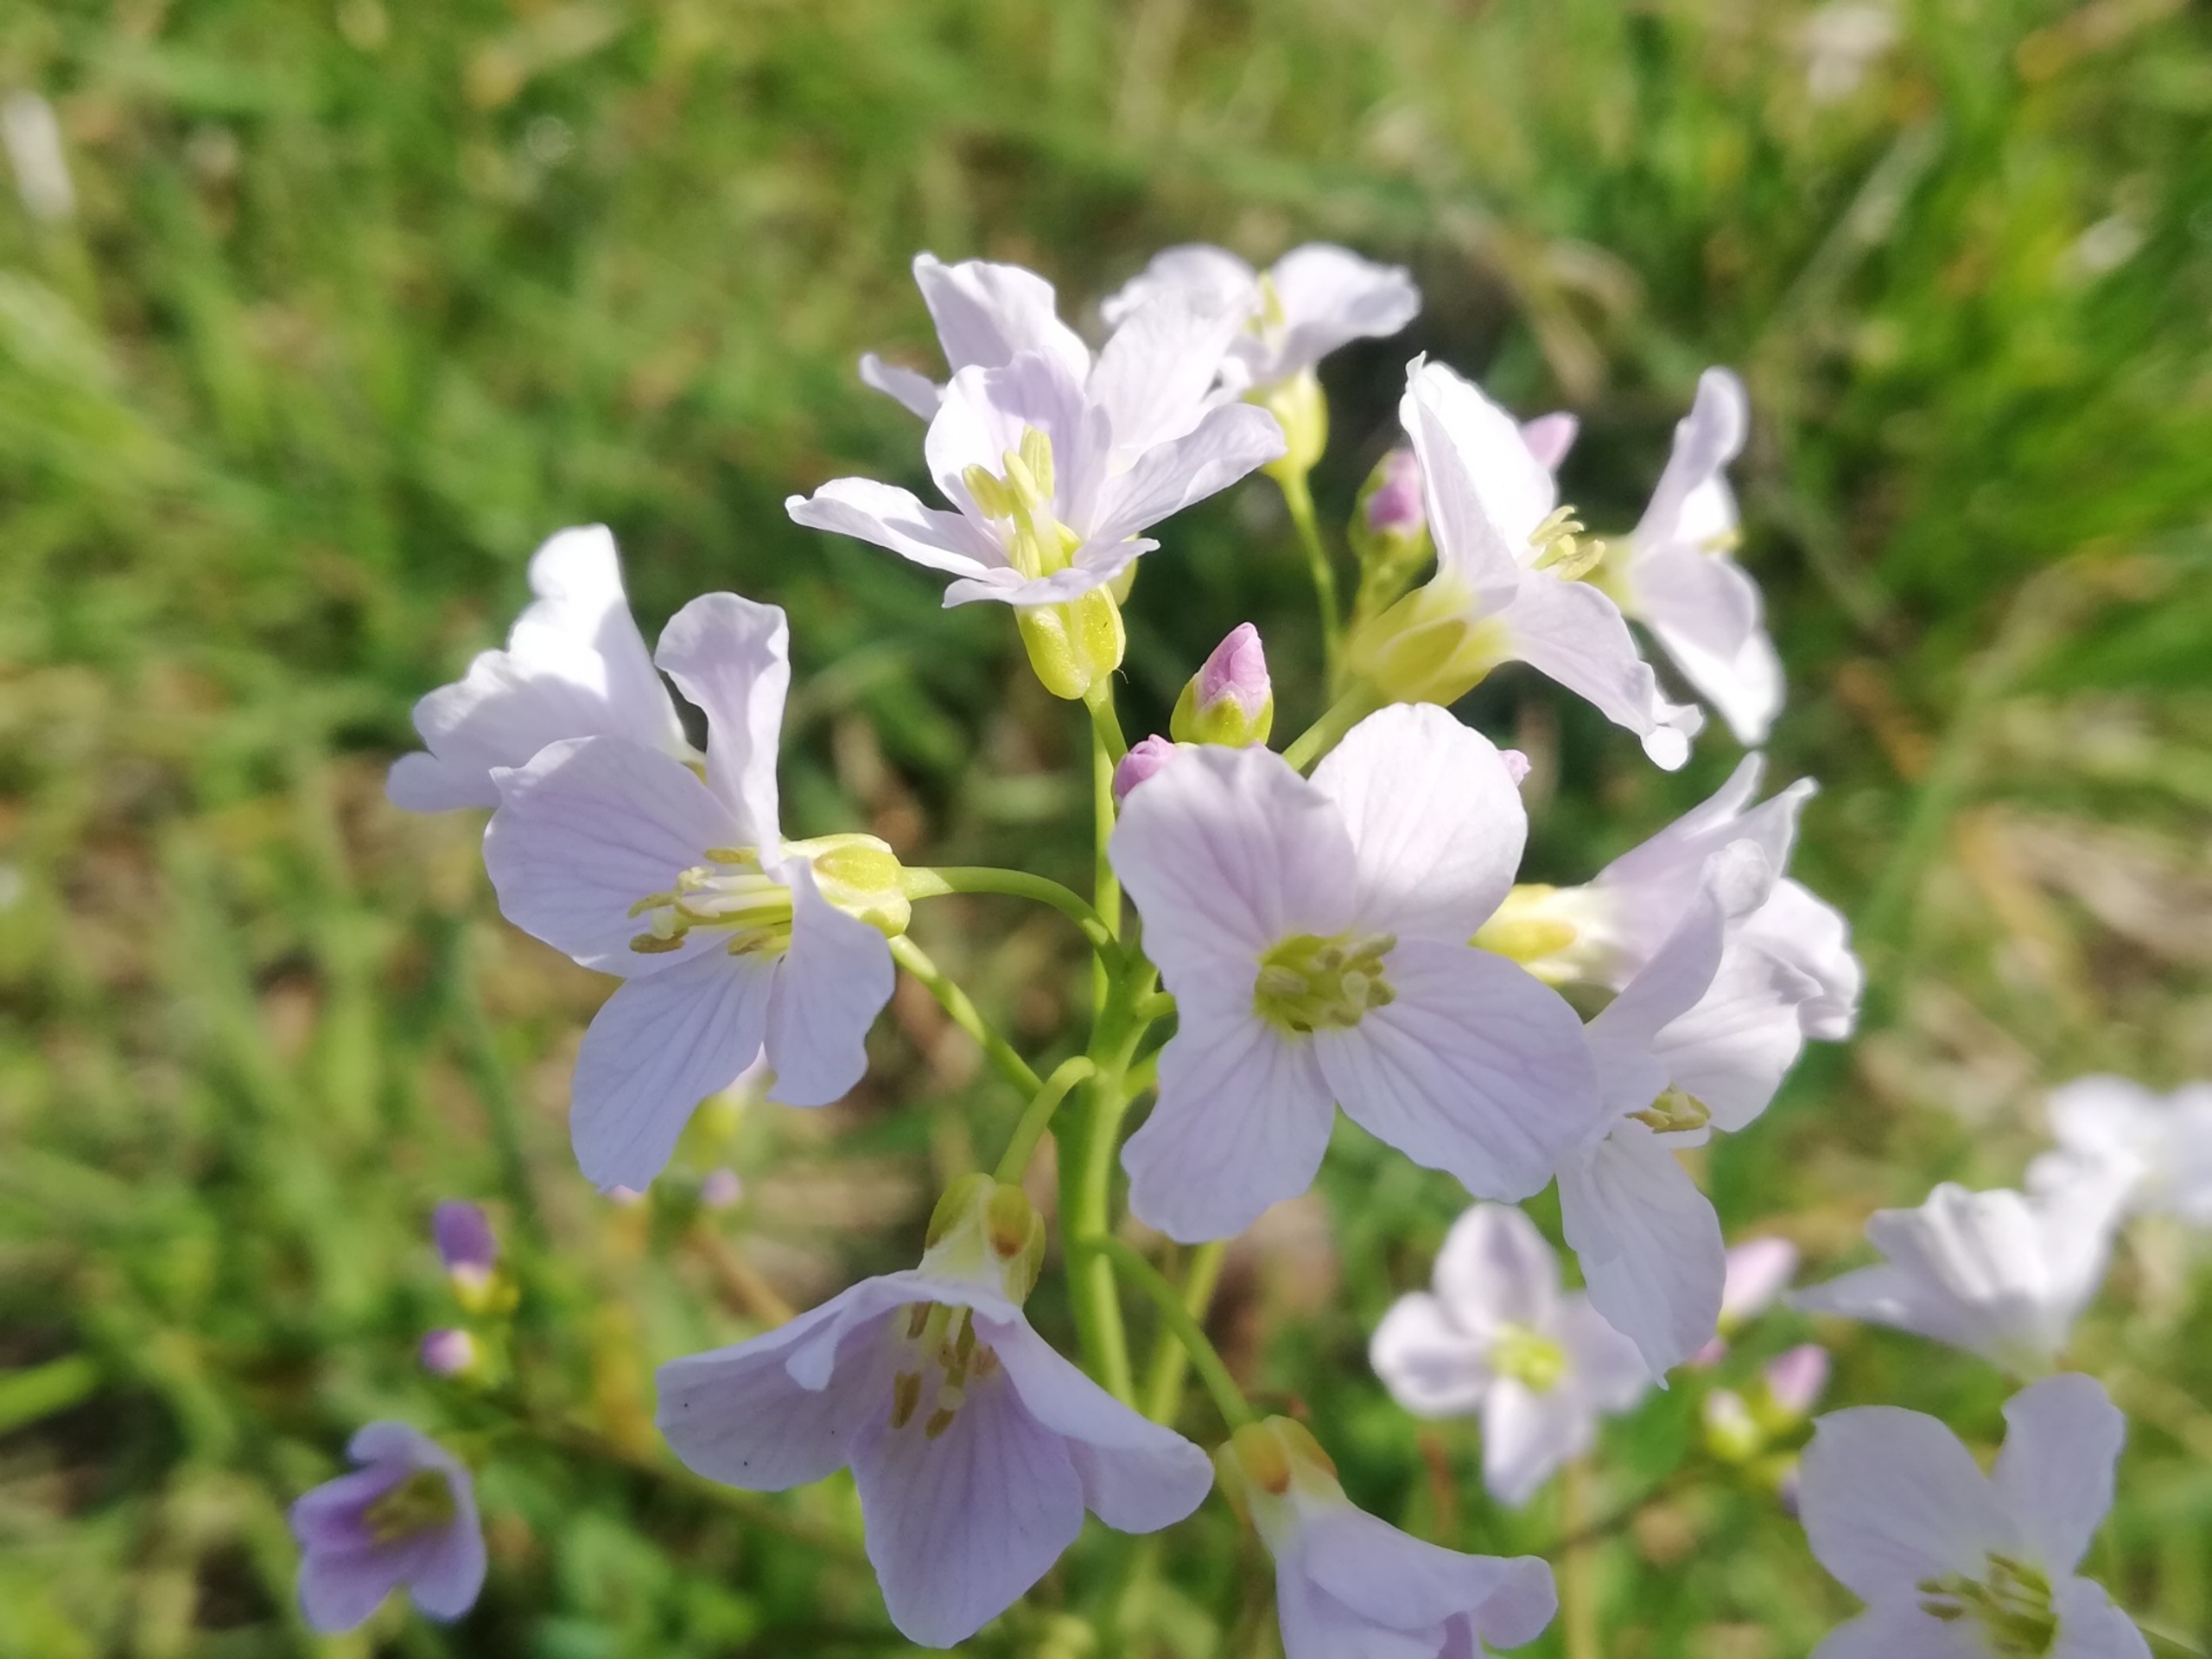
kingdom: Plantae
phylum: Tracheophyta
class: Magnoliopsida
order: Brassicales
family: Brassicaceae
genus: Cardamine
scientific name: Cardamine pratensis
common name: Engkarse
